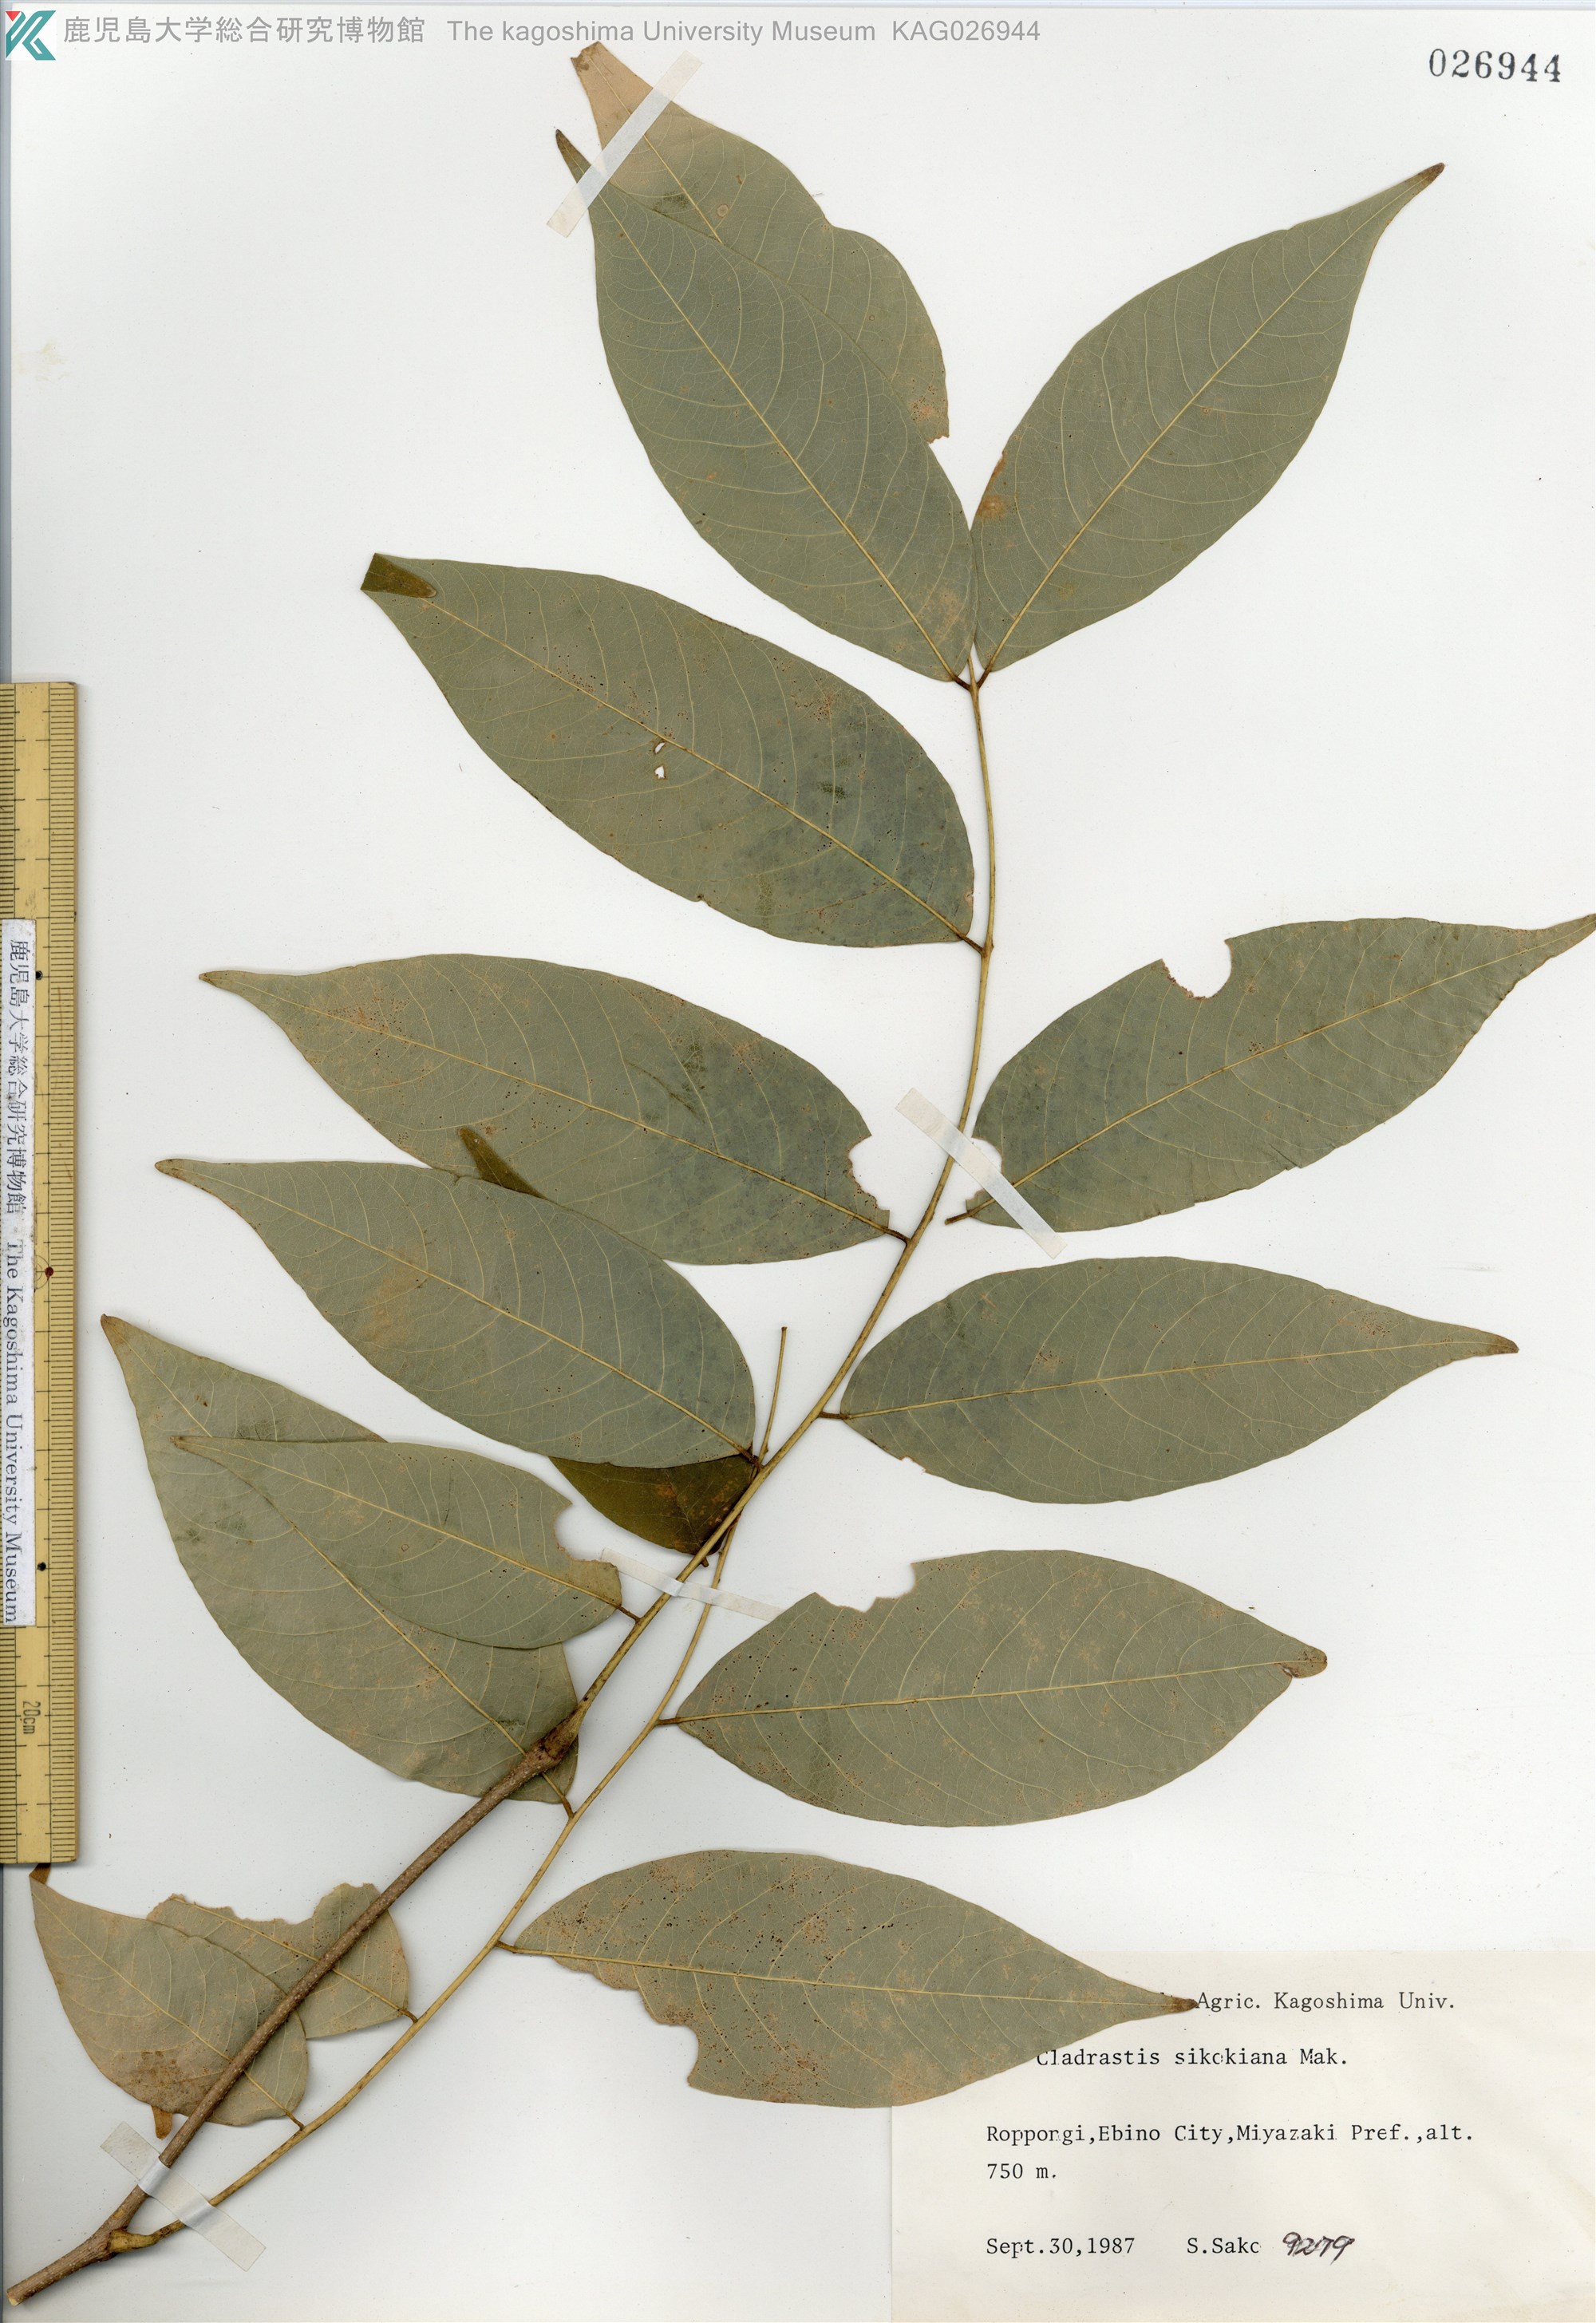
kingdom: Plantae
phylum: Tracheophyta
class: Magnoliopsida
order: Fabales
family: Fabaceae
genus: Cladrastis
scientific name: Cladrastis shikokiana
